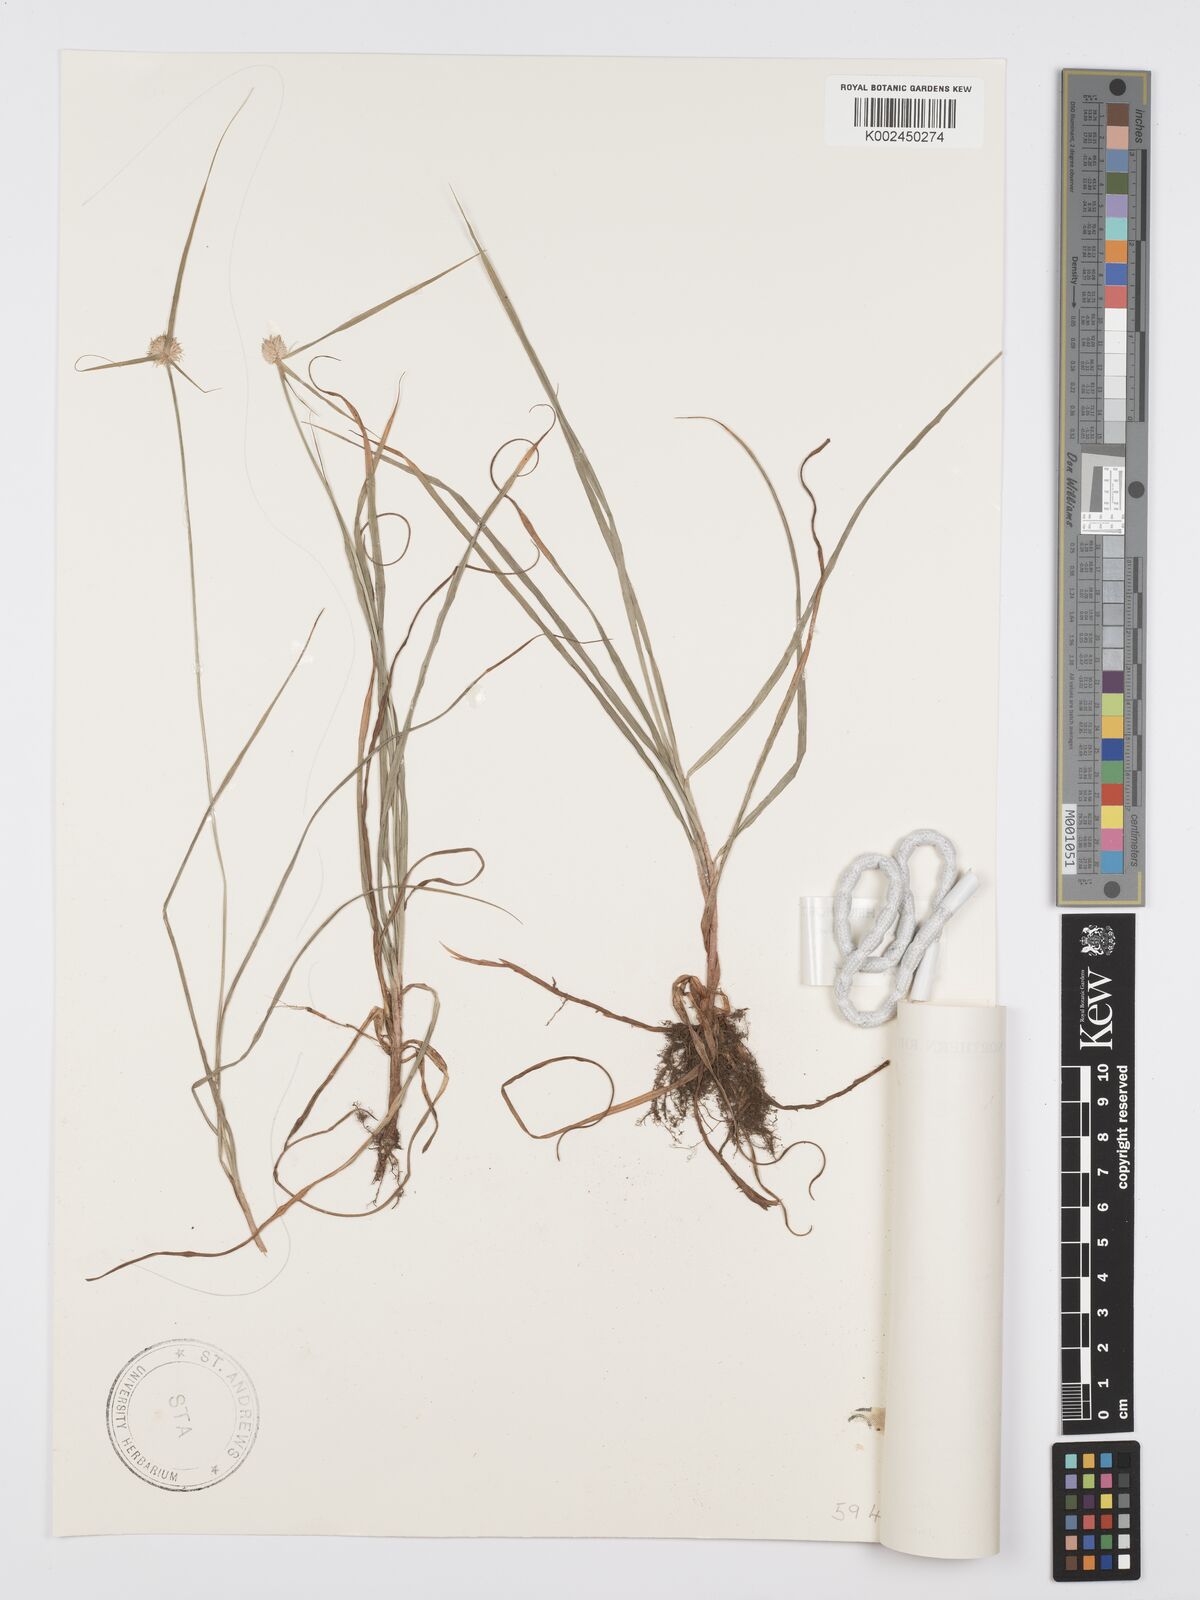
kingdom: Plantae
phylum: Tracheophyta
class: Liliopsida
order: Poales
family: Cyperaceae
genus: Cyperus
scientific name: Cyperus
